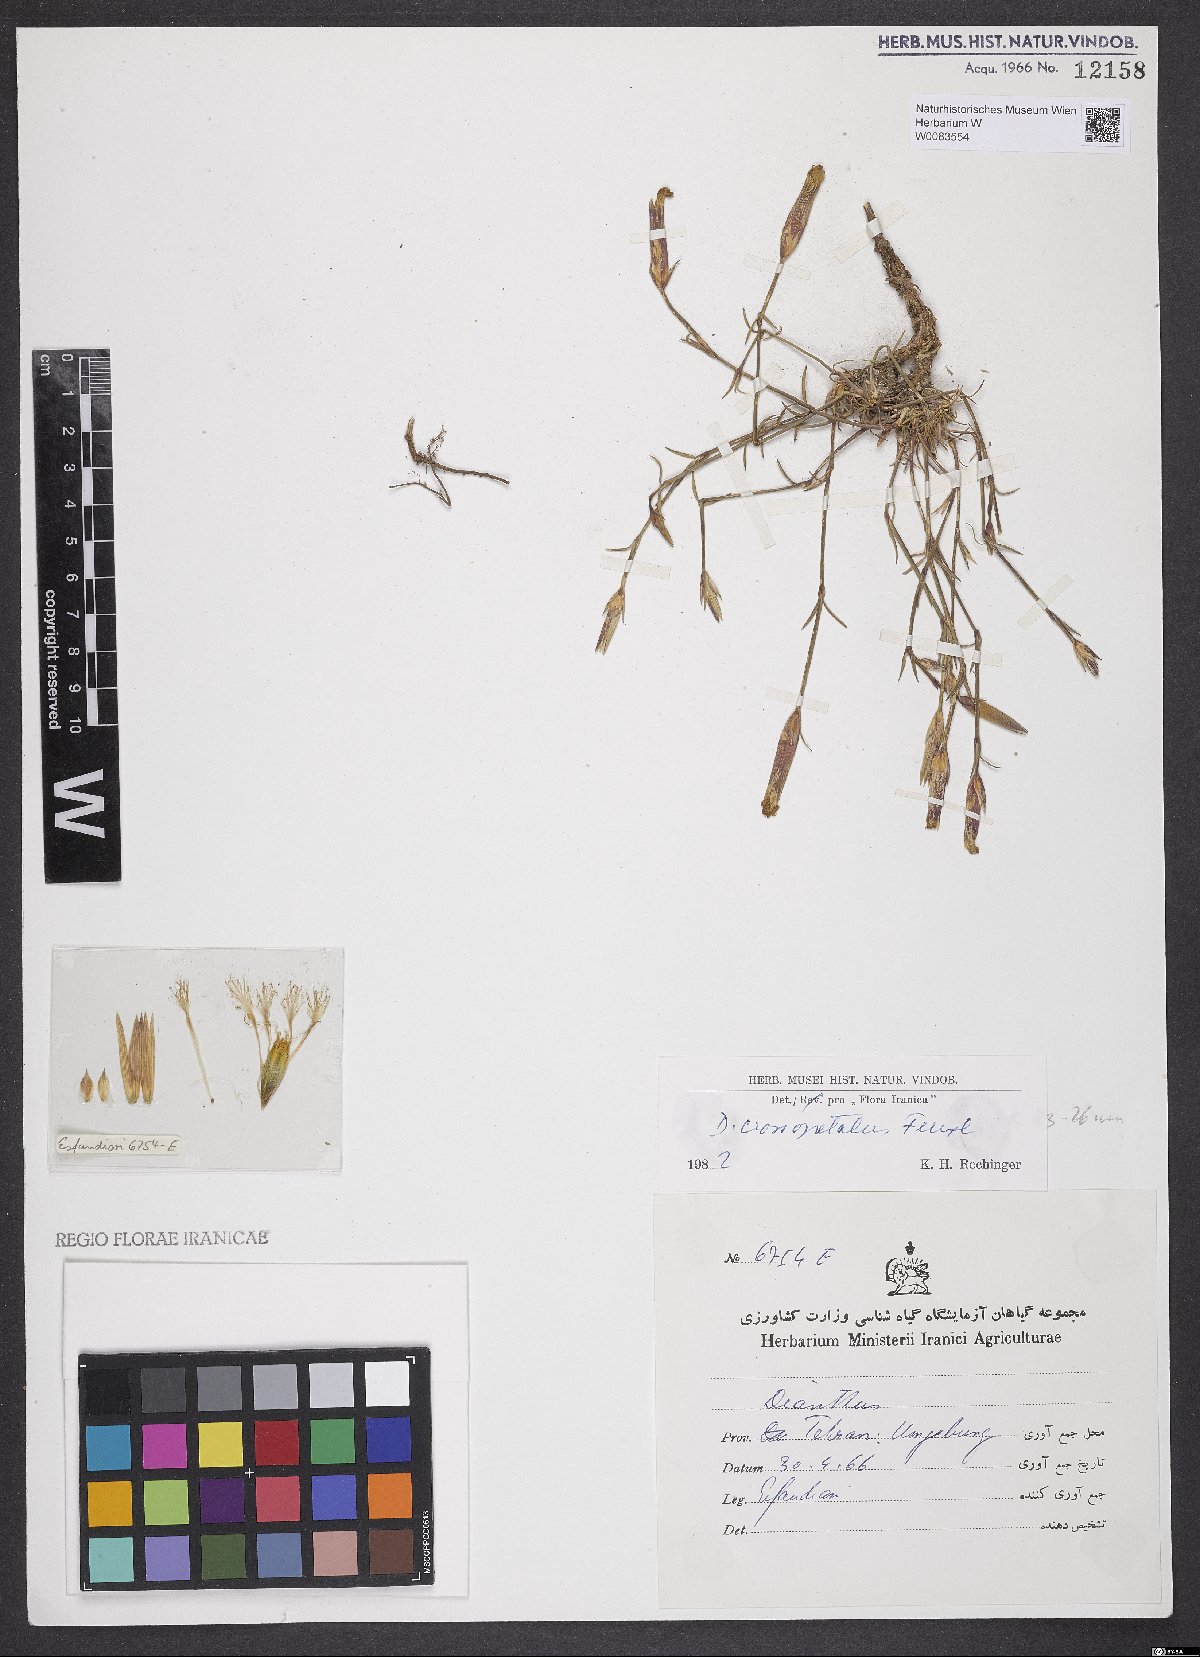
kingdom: Plantae
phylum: Tracheophyta
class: Magnoliopsida
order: Caryophyllales
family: Caryophyllaceae
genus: Dianthus
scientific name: Dianthus crossopetalus
